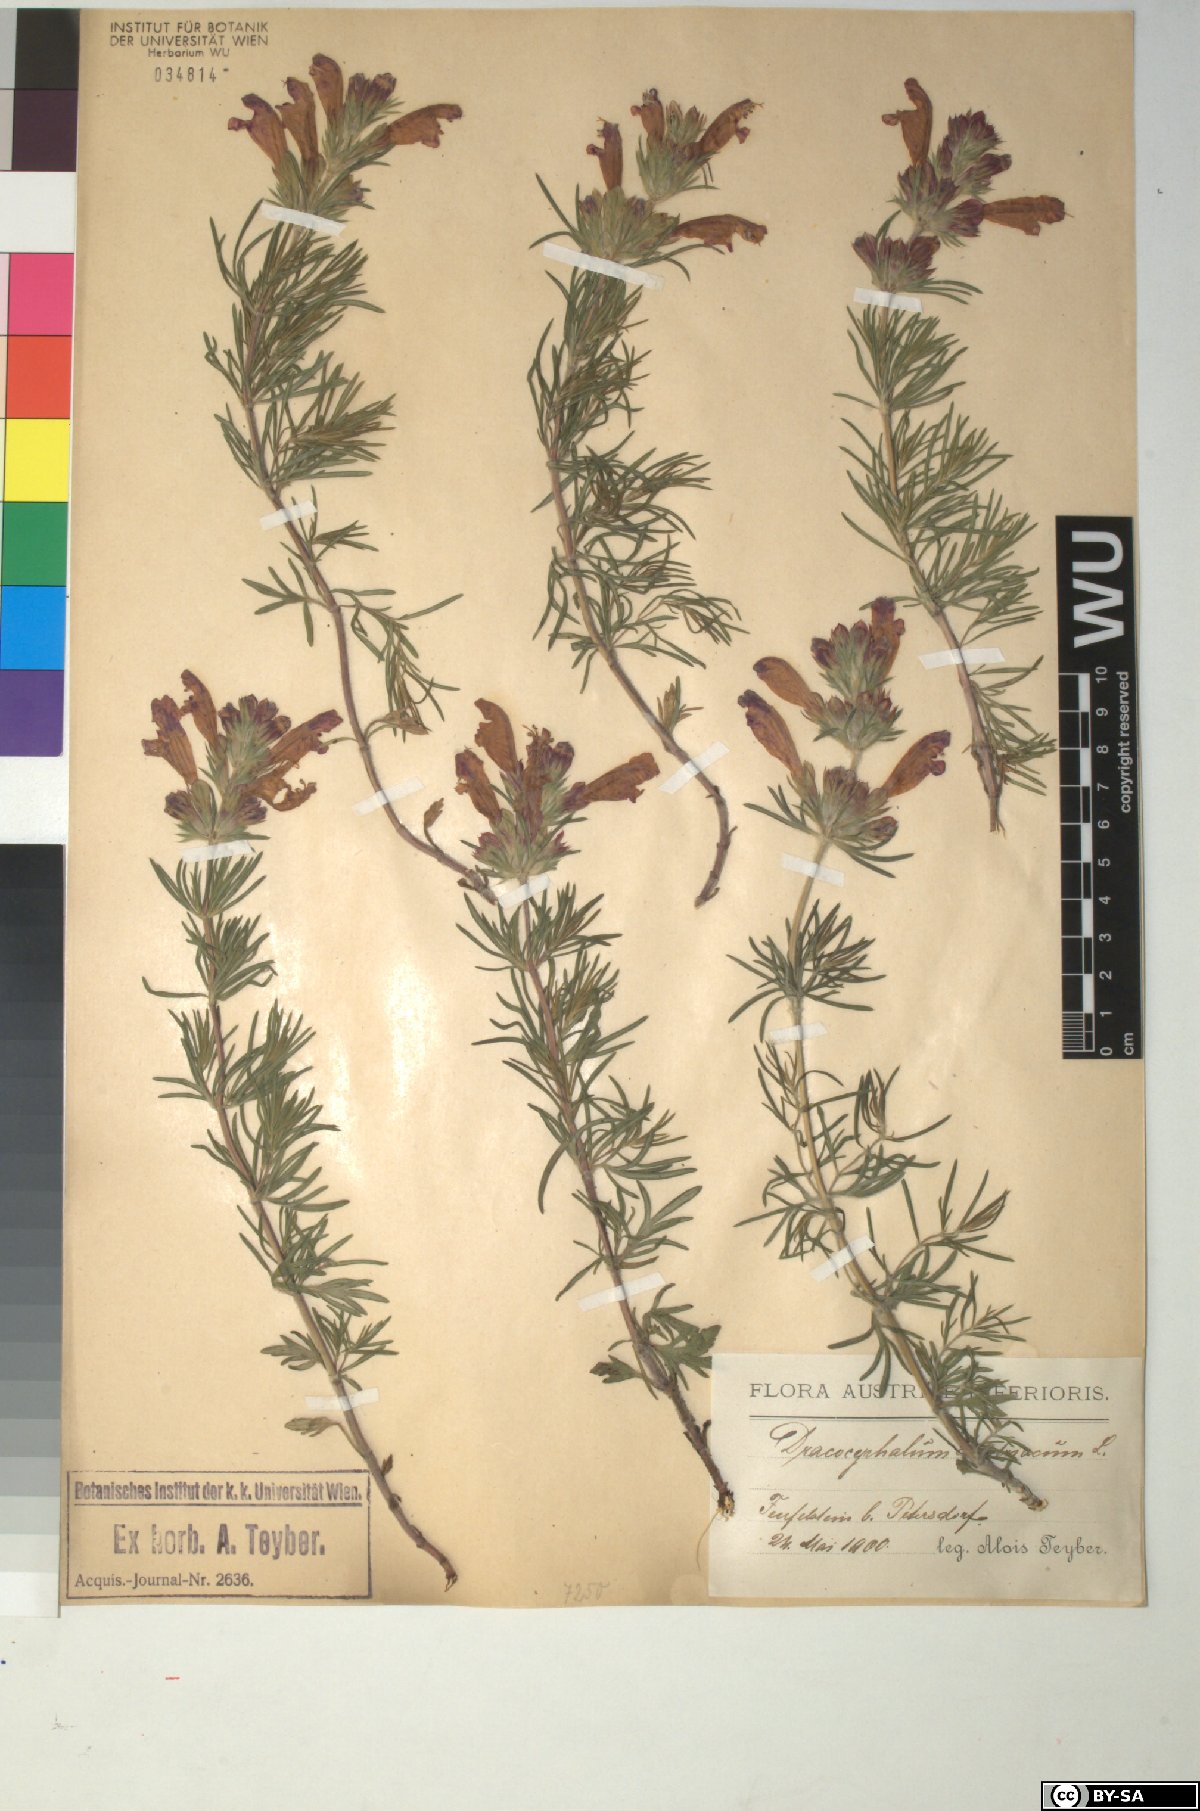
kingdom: Plantae
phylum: Tracheophyta
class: Magnoliopsida
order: Lamiales
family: Lamiaceae
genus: Dracocephalum
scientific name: Dracocephalum austriacum
